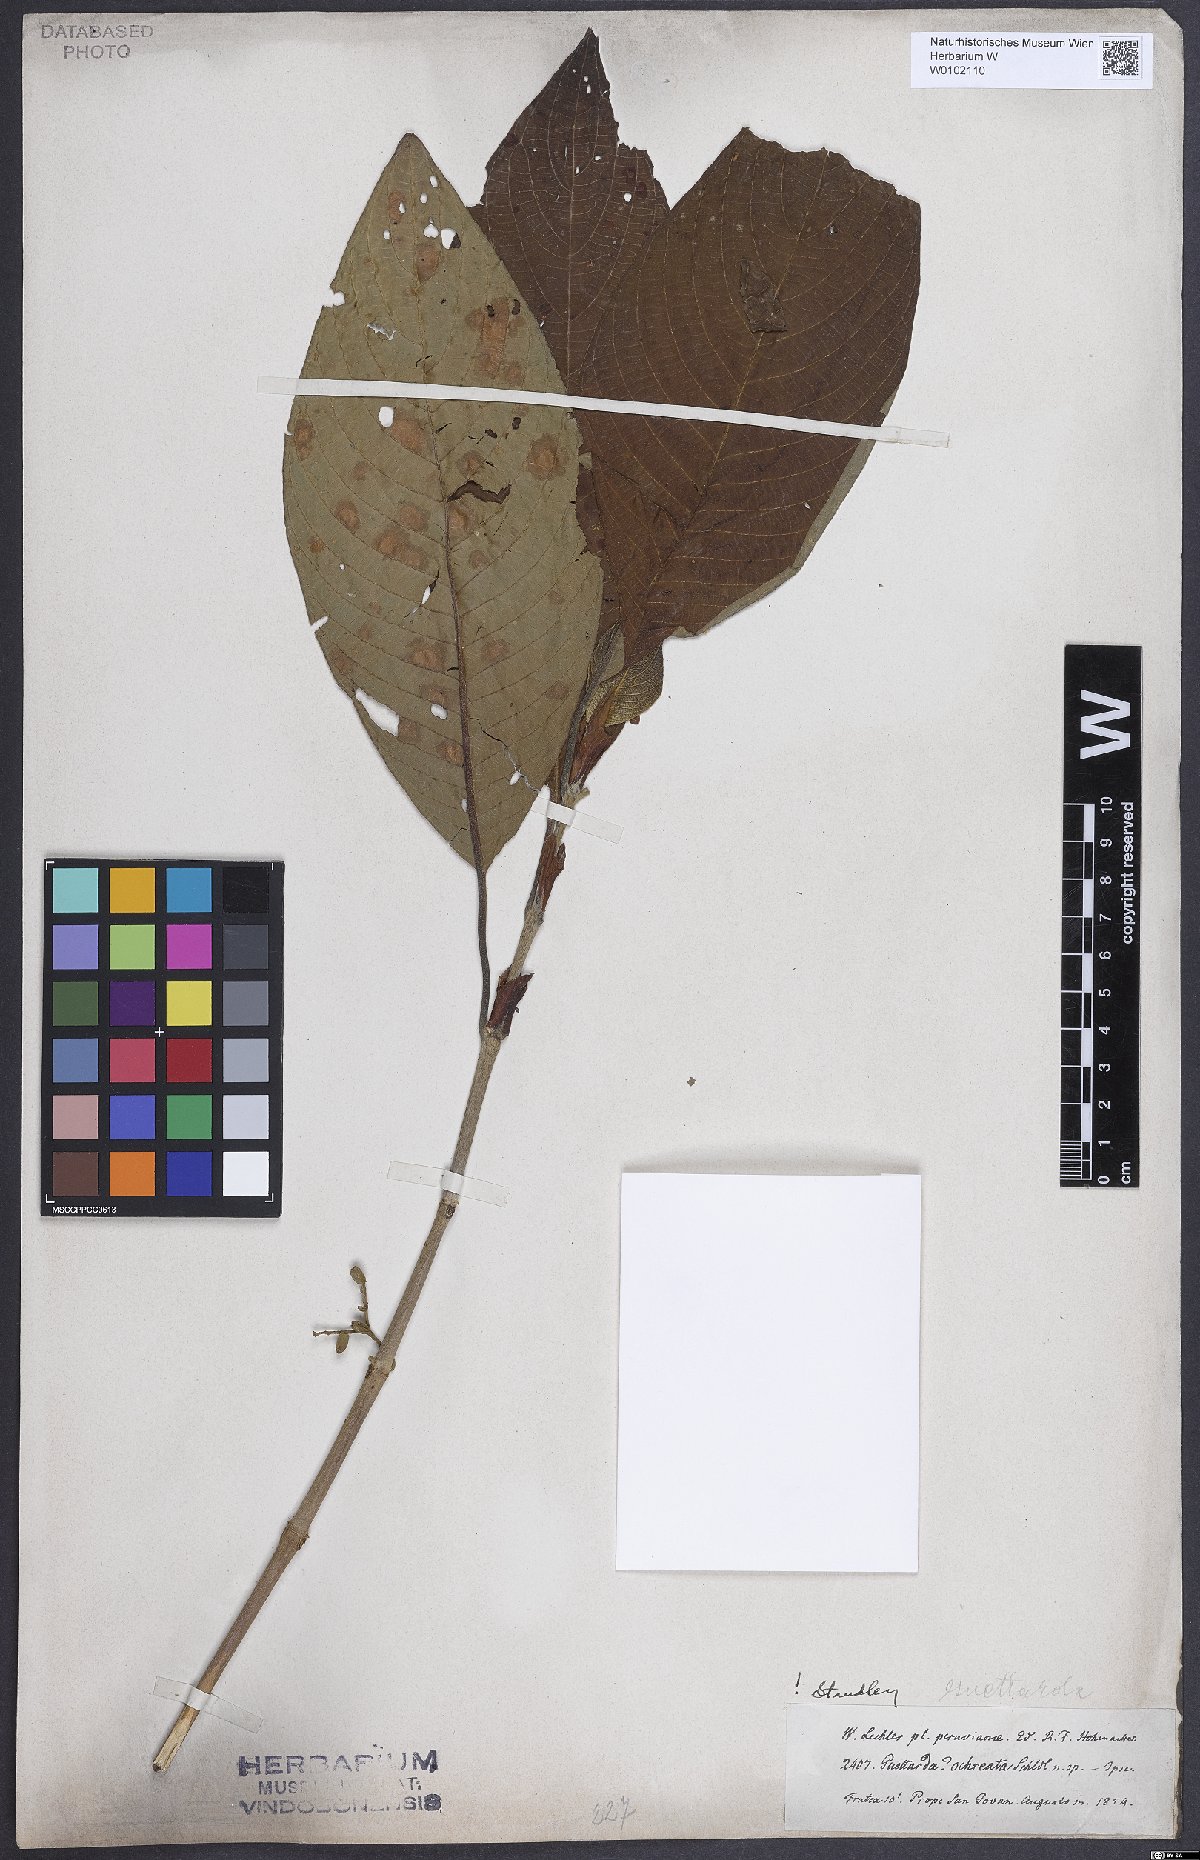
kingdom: Plantae
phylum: Tracheophyta
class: Magnoliopsida
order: Gentianales
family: Rubiaceae
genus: Tournefortiopsis
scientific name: Tournefortiopsis crispiflora
